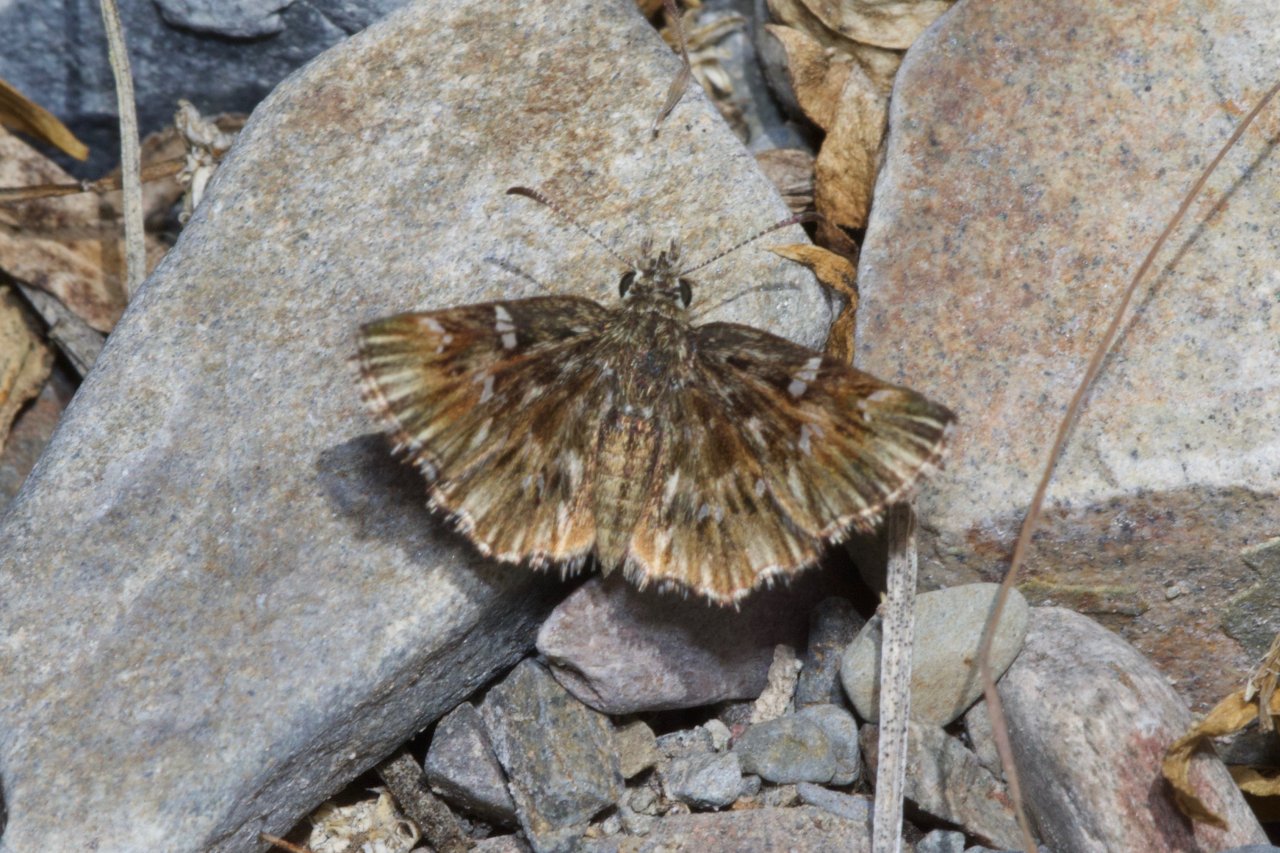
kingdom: Animalia
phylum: Arthropoda
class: Insecta
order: Lepidoptera
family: Hesperiidae
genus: Celotes
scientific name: Celotes nessus
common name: Common Streaky-Skipper
